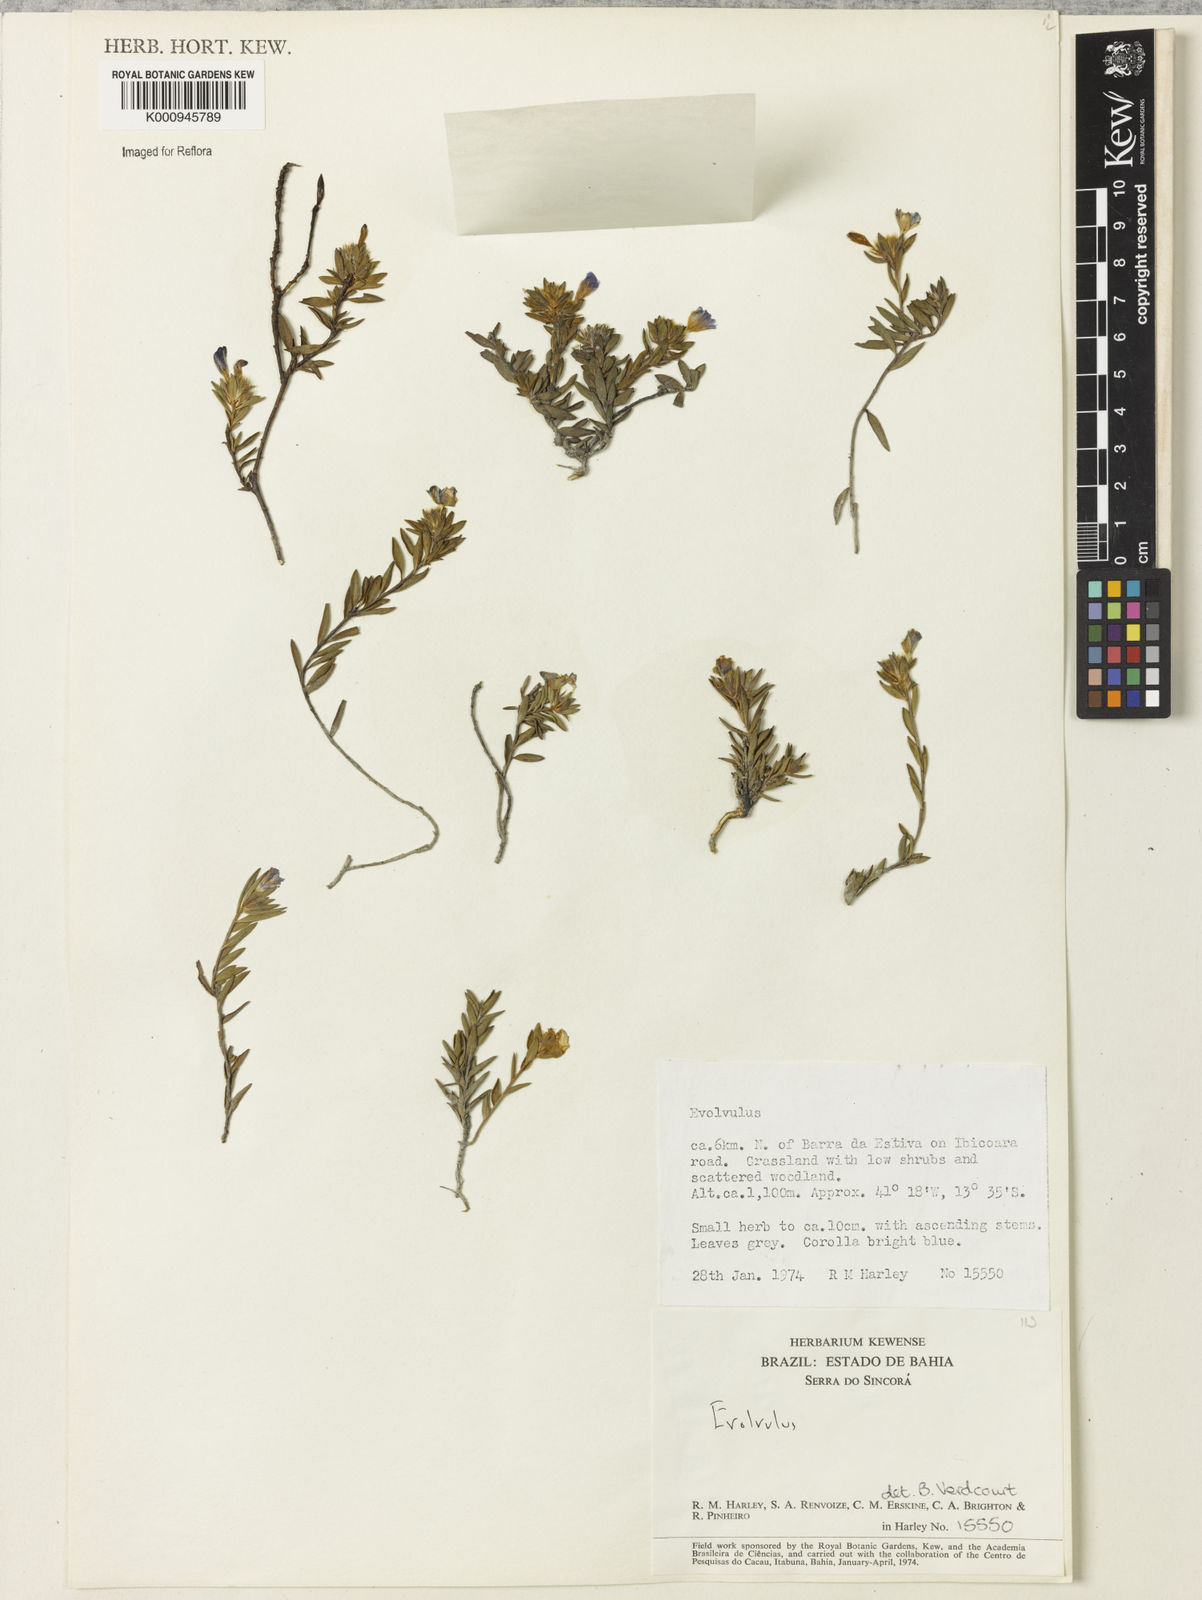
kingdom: Plantae
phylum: Tracheophyta
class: Magnoliopsida
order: Solanales
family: Convolvulaceae
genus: Evolvulus
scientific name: Evolvulus
